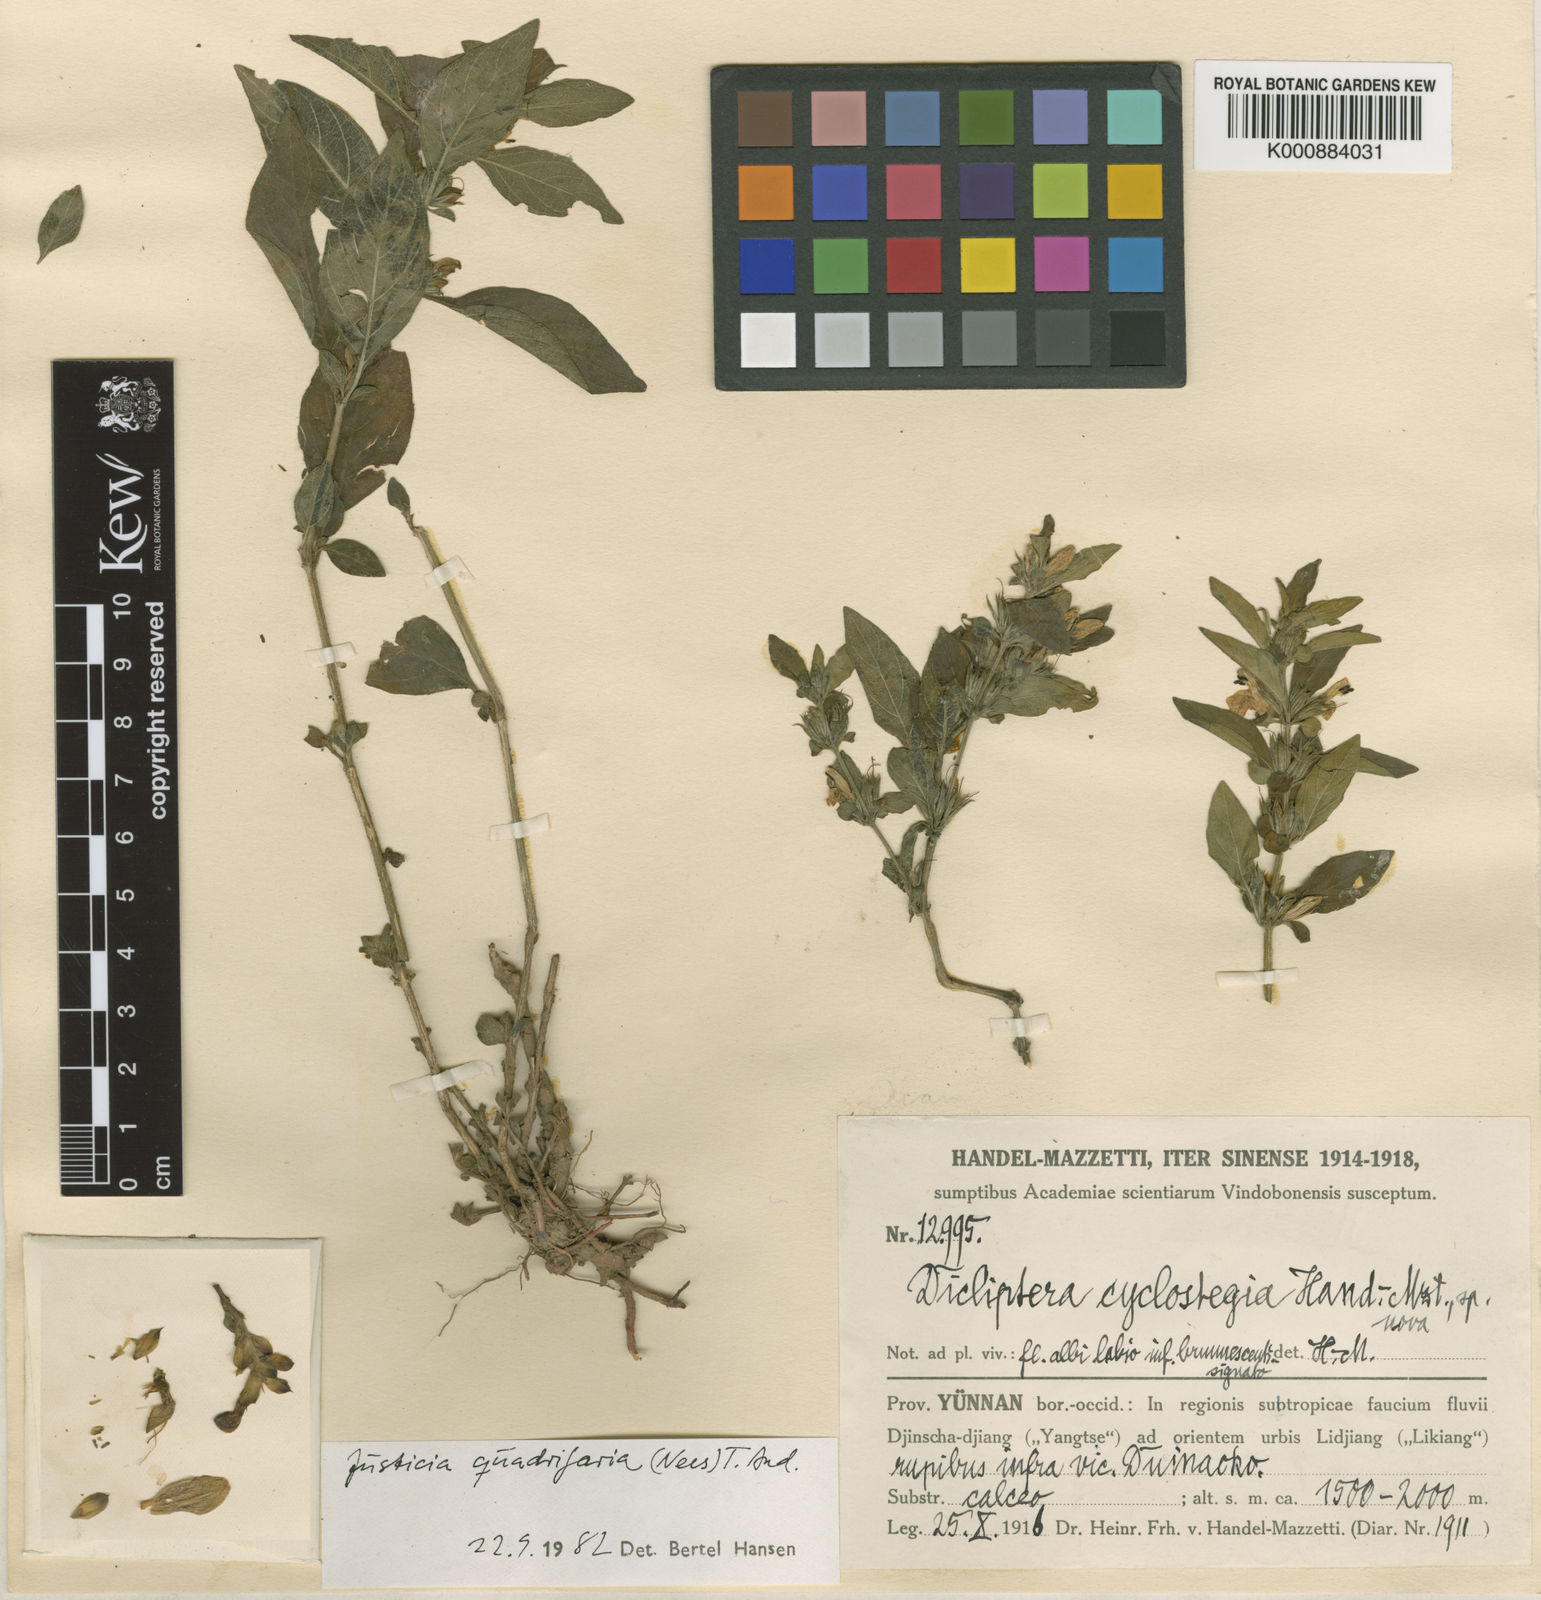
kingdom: Plantae
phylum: Tracheophyta
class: Magnoliopsida
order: Lamiales
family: Acanthaceae
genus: Justicia
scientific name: Justicia quadrifaria
